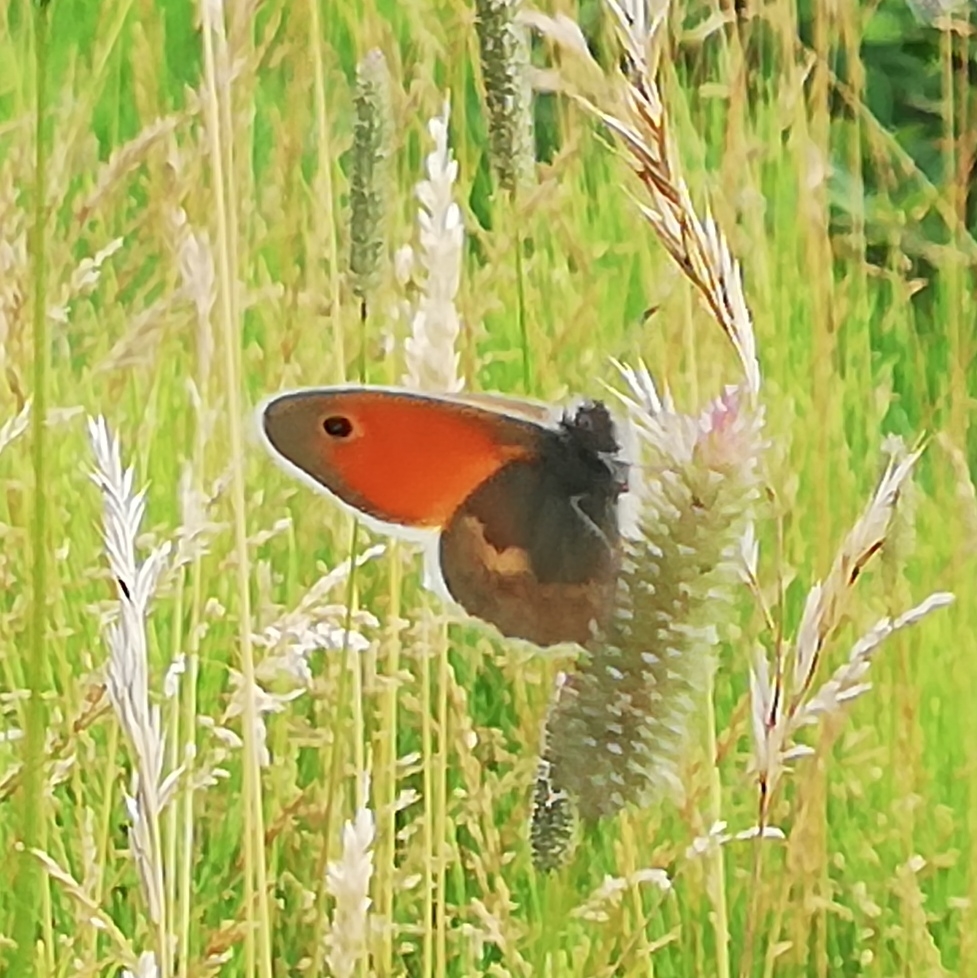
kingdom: Animalia
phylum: Arthropoda
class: Insecta
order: Lepidoptera
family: Nymphalidae
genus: Coenonympha
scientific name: Coenonympha pamphilus
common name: Okkergul randøje
